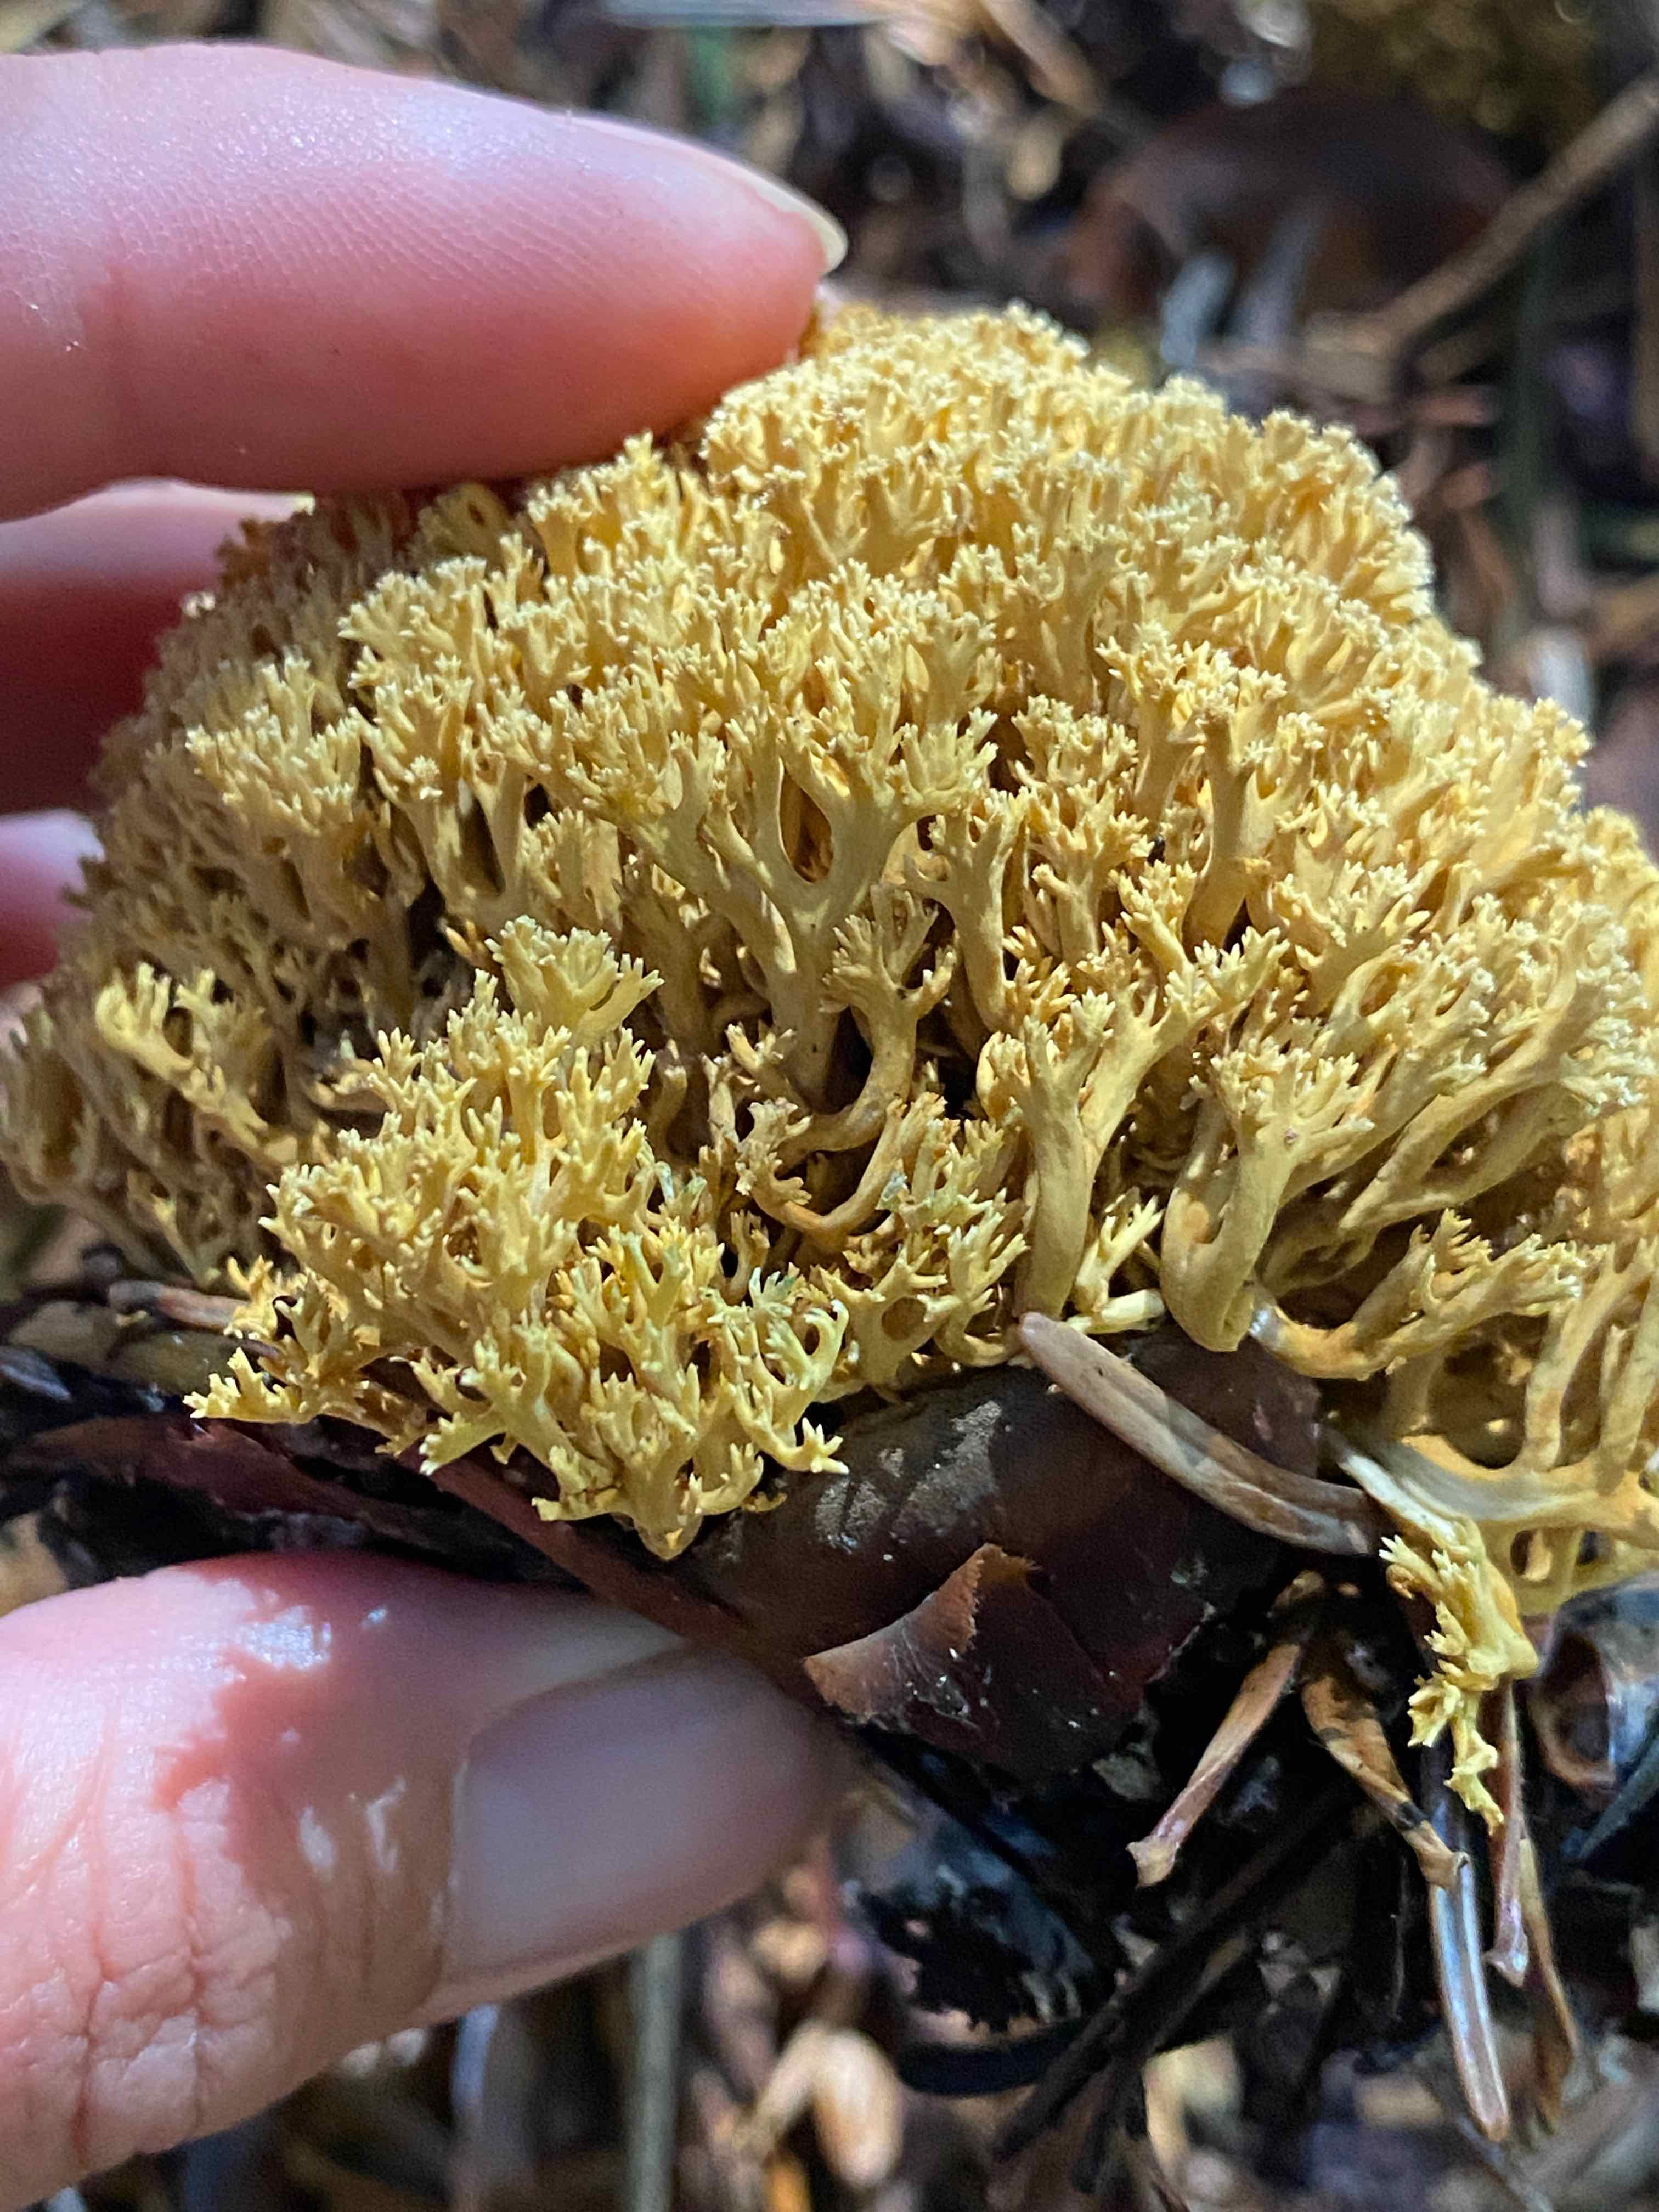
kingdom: Fungi
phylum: Basidiomycota
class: Agaricomycetes
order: Gomphales
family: Gomphaceae
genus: Phaeoclavulina
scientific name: Phaeoclavulina abietina
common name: gulgrøn koralsvamp
